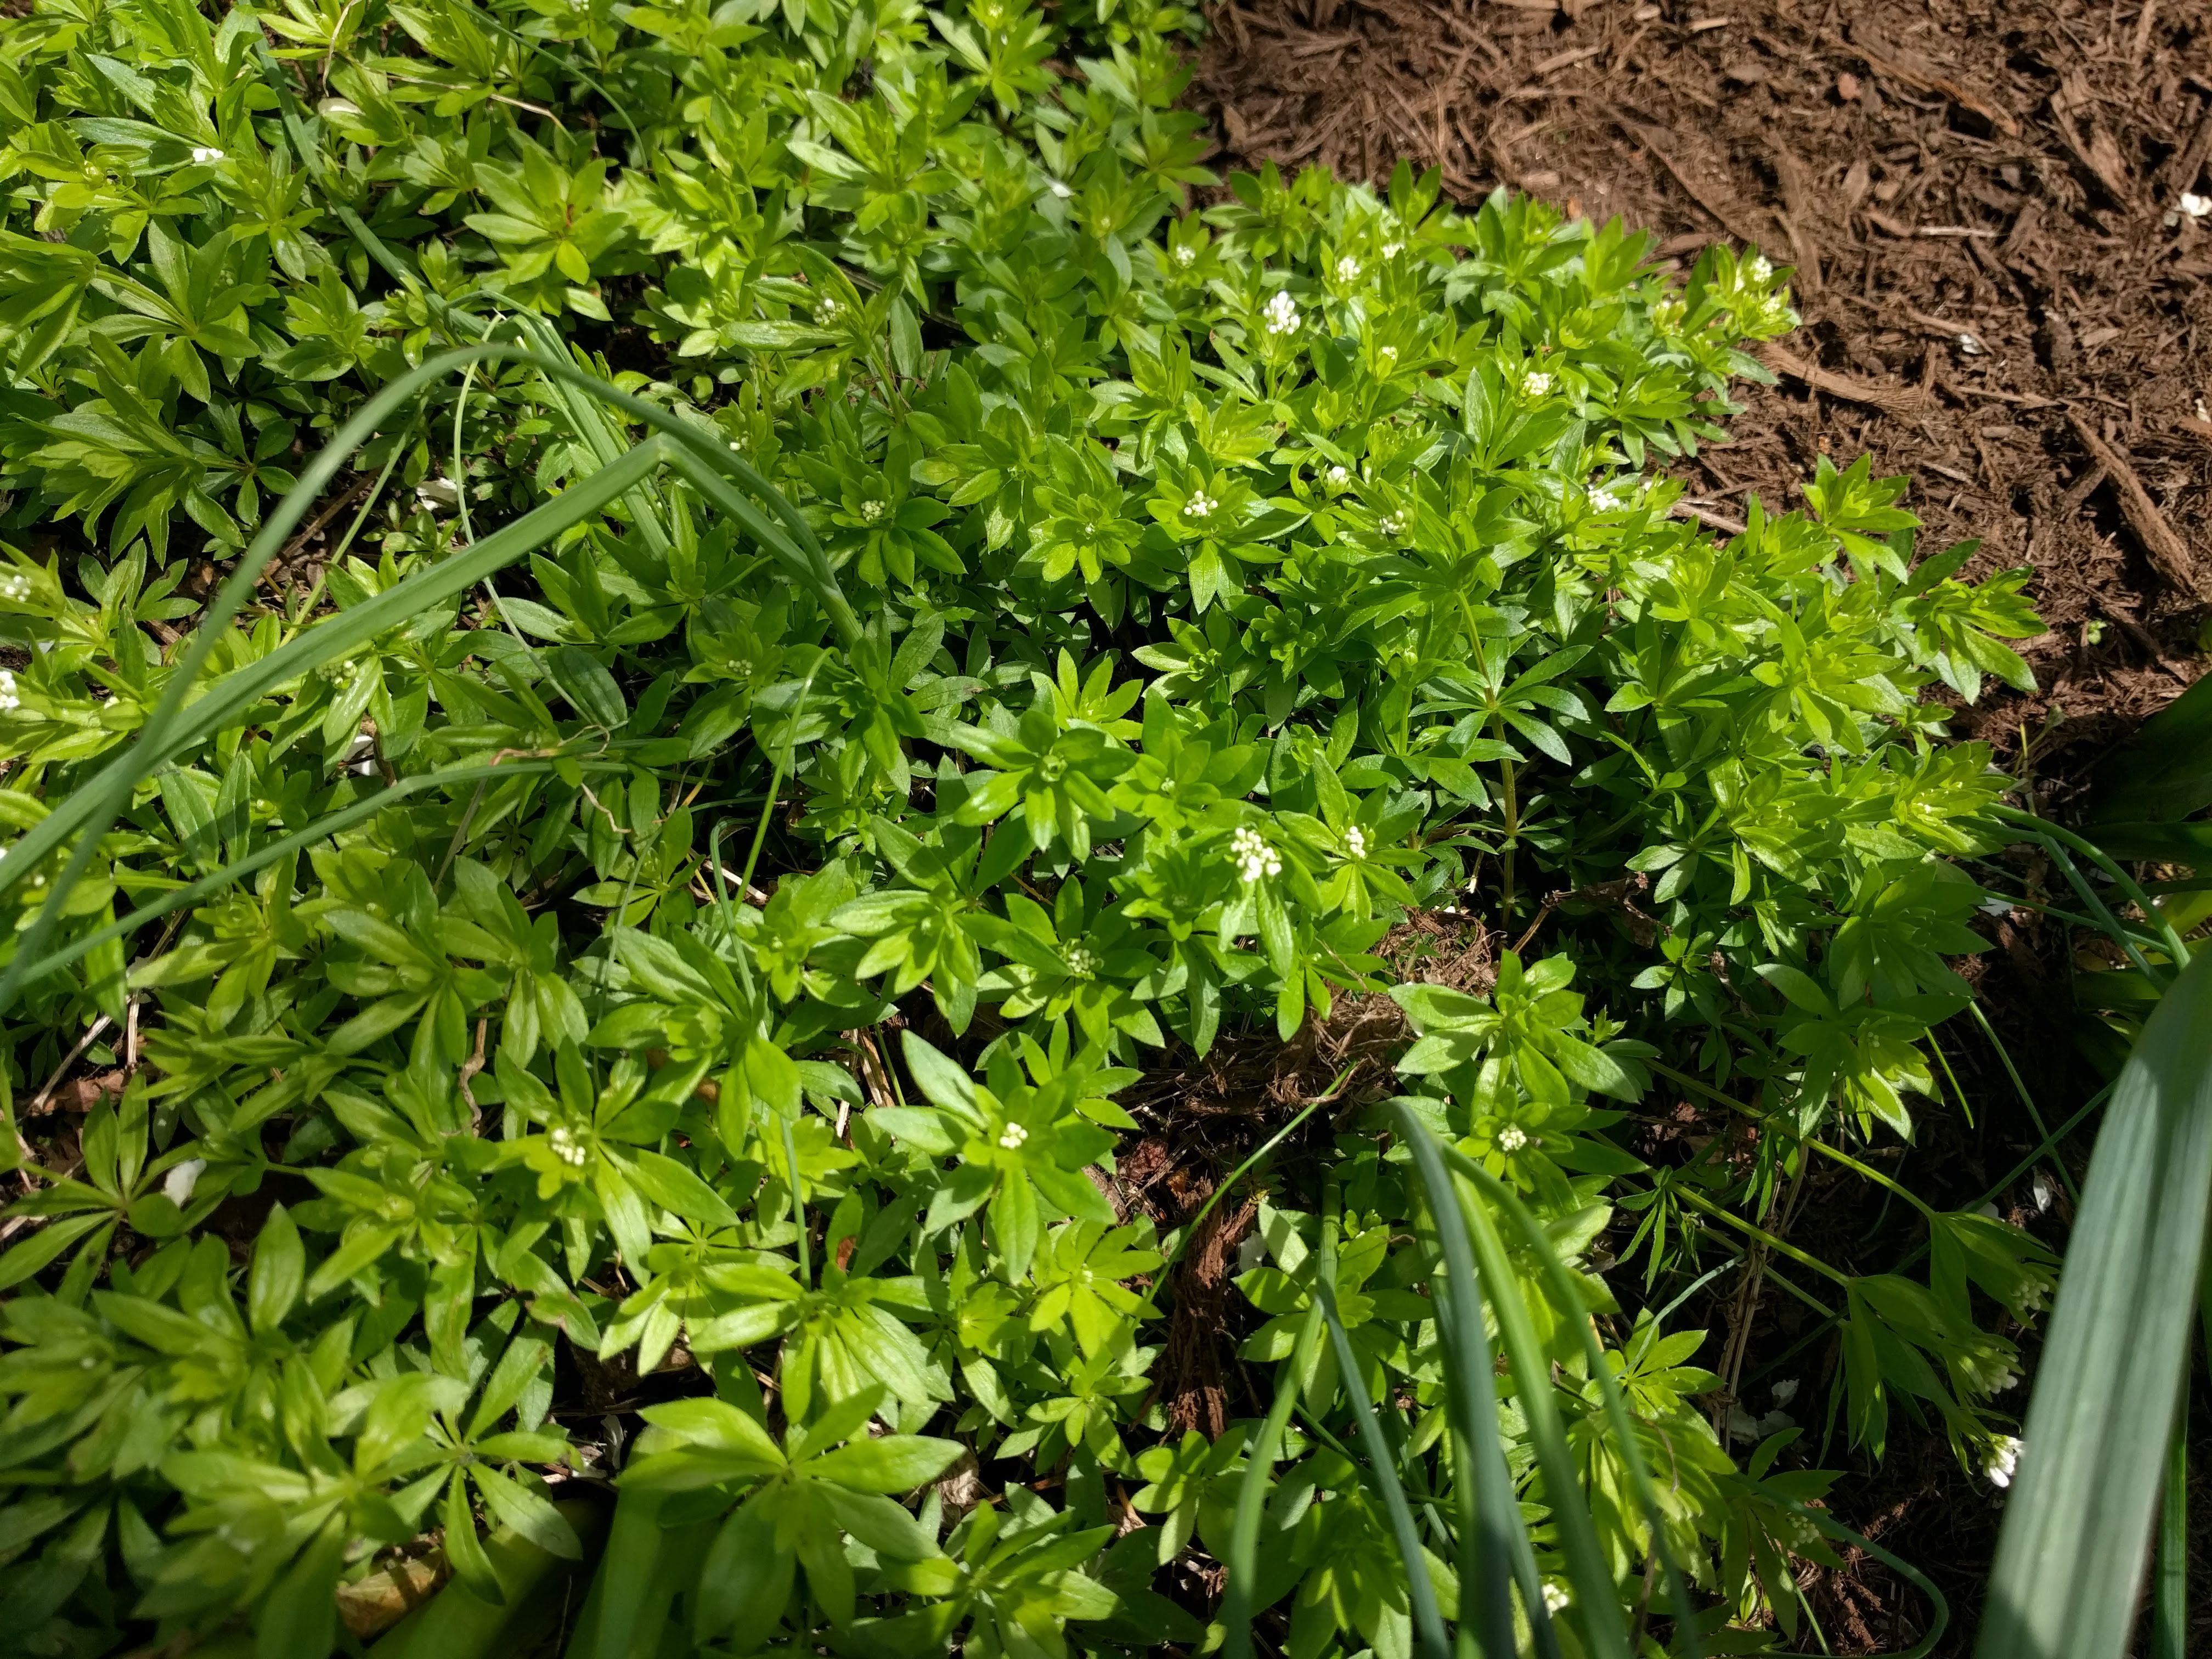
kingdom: Plantae
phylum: Tracheophyta
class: Magnoliopsida
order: Gentianales
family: Rubiaceae
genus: Galium
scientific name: Galium odoratum
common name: Sweet woodruff
